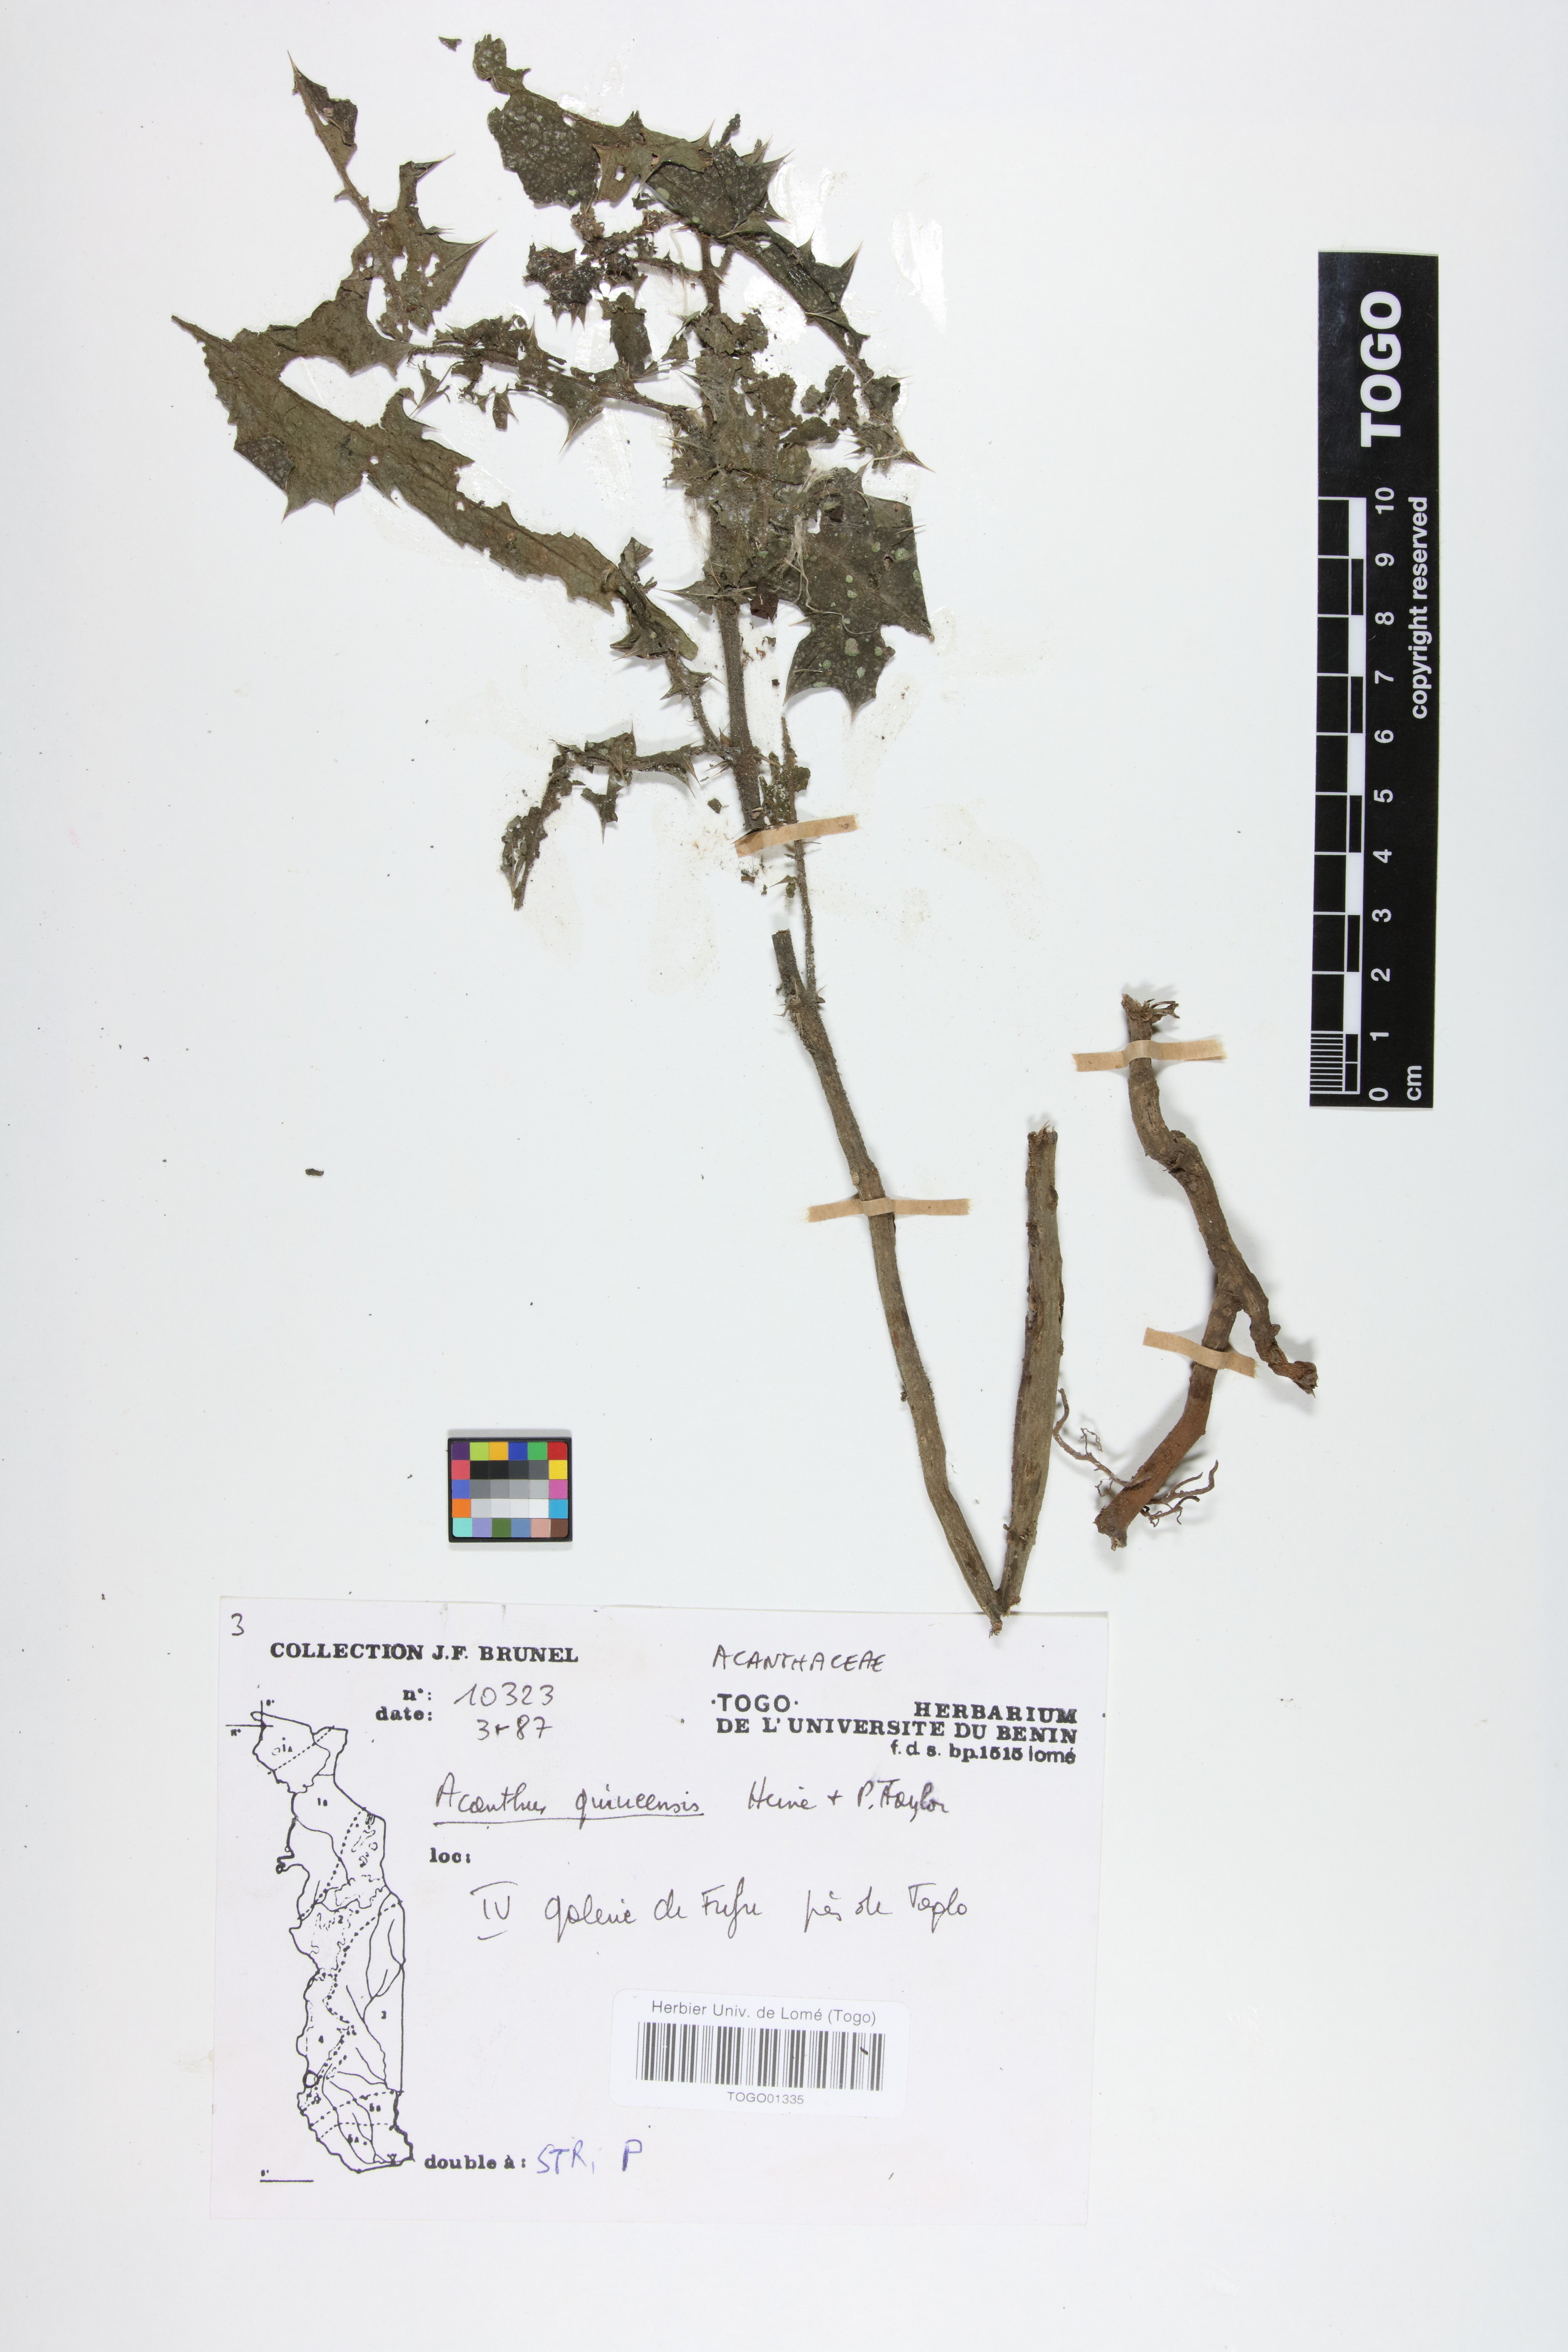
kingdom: Plantae
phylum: Tracheophyta
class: Magnoliopsida
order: Lamiales
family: Acanthaceae
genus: Acanthus
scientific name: Acanthus guineensis
